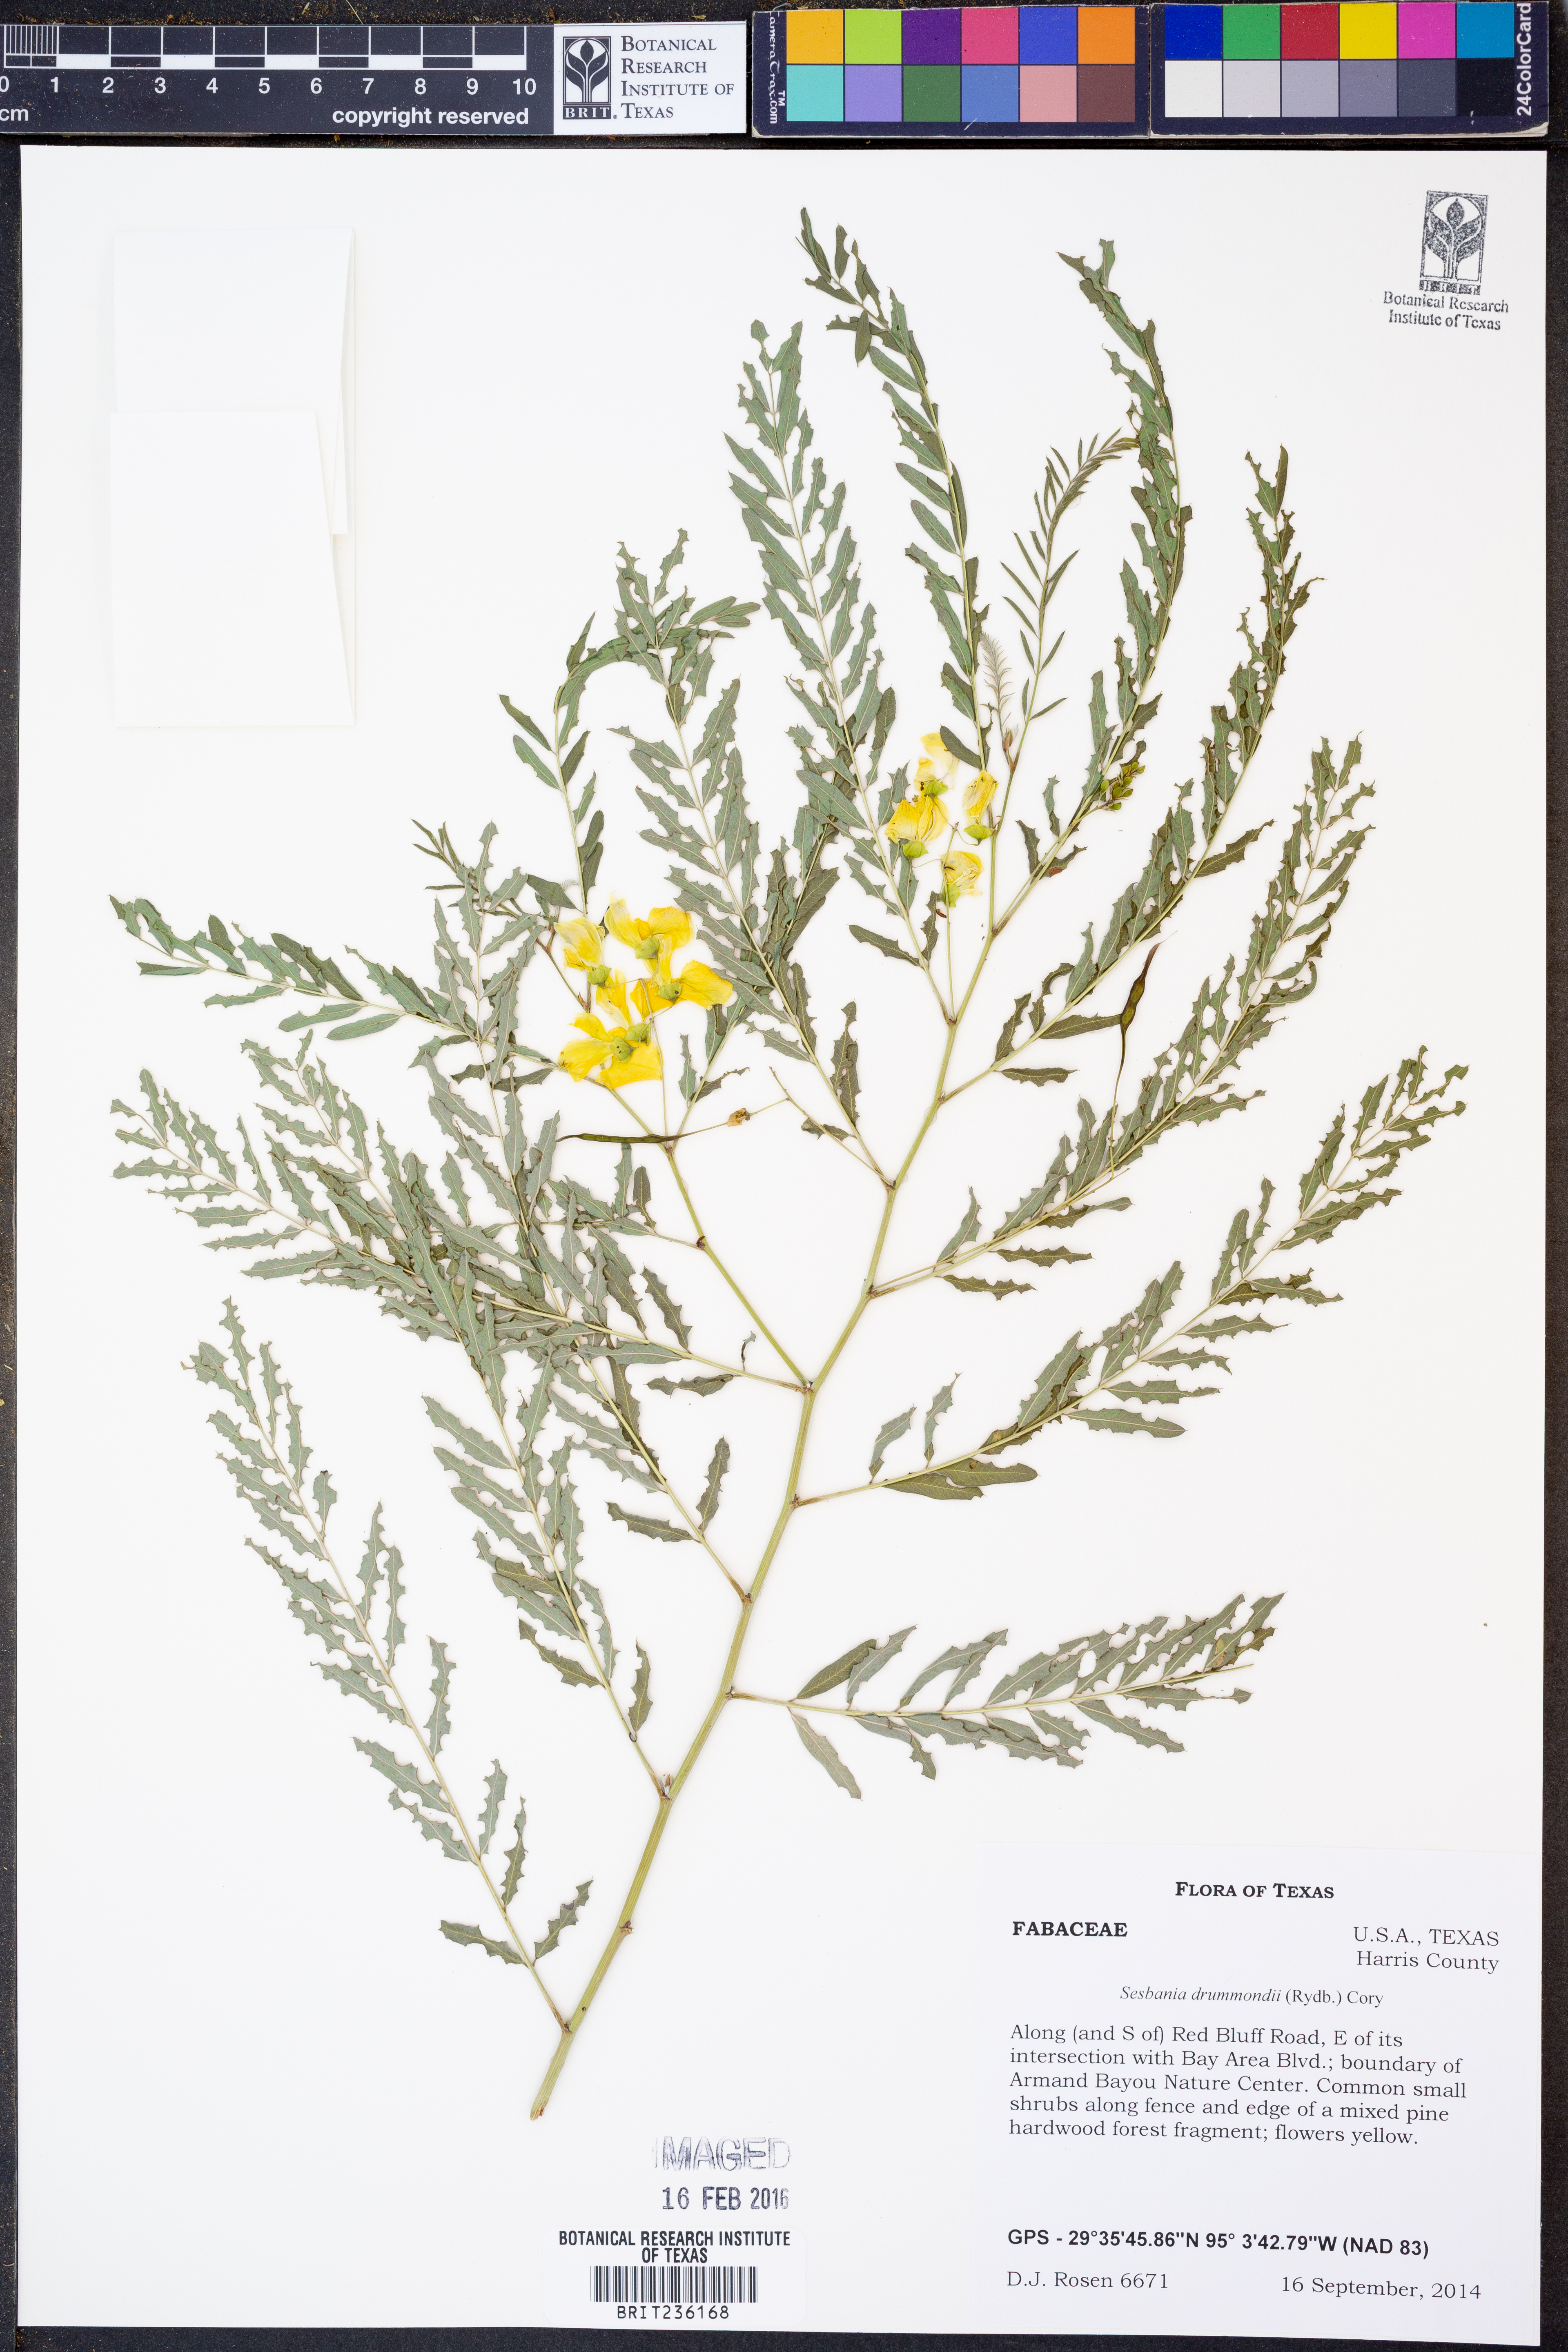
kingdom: Plantae
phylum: Tracheophyta
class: Magnoliopsida
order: Fabales
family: Fabaceae
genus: Sesbania
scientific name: Sesbania drummondii
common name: Poison-bean
